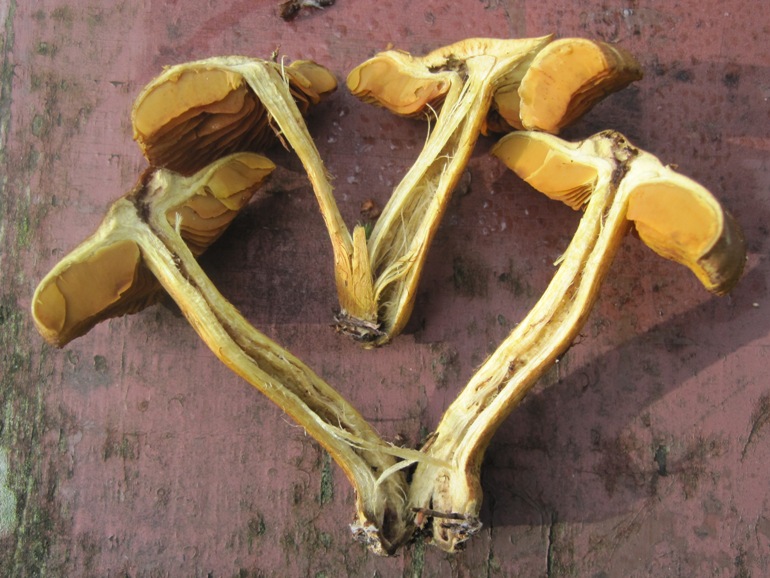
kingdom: Fungi
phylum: Basidiomycota
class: Agaricomycetes
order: Agaricales
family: Cortinariaceae
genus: Cortinarius
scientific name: Cortinarius malicorius
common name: grønkødet slørhat
